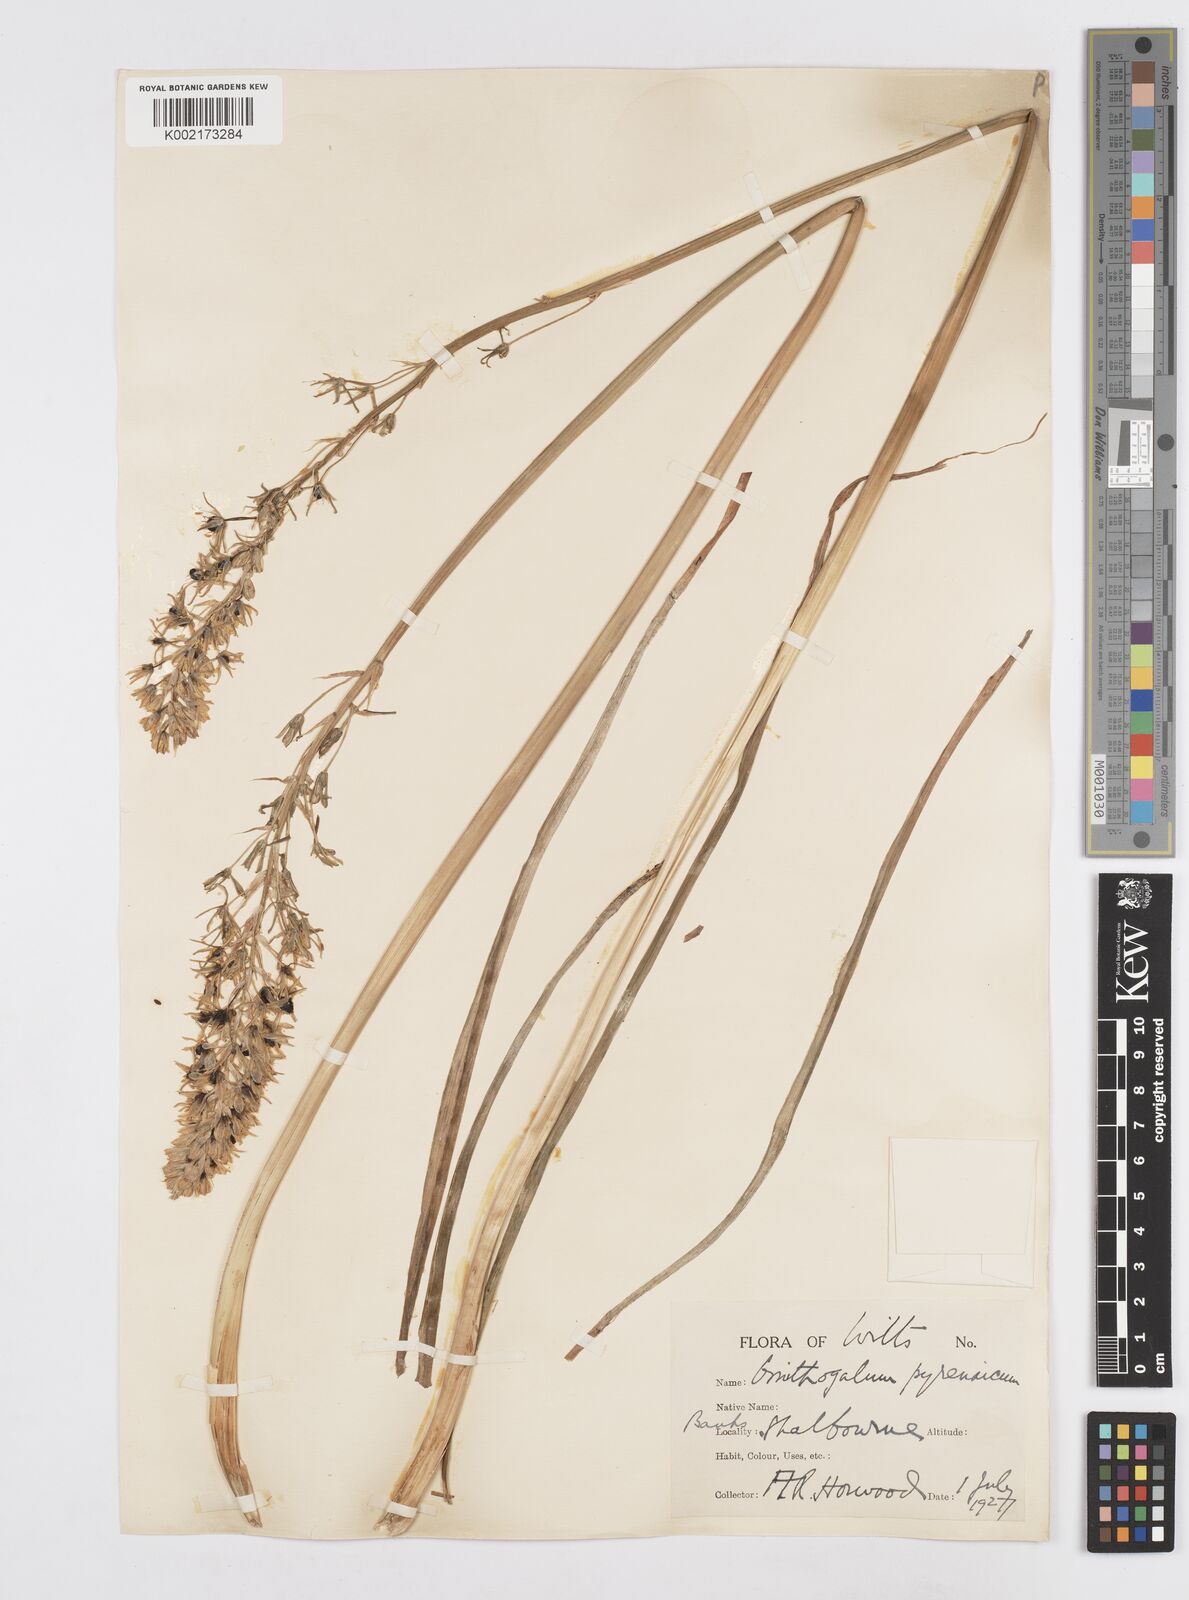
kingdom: Plantae
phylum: Tracheophyta
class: Liliopsida
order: Asparagales
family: Asparagaceae
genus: Ornithogalum
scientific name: Ornithogalum pyrenaicum
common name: Spiked star-of-bethlehem
